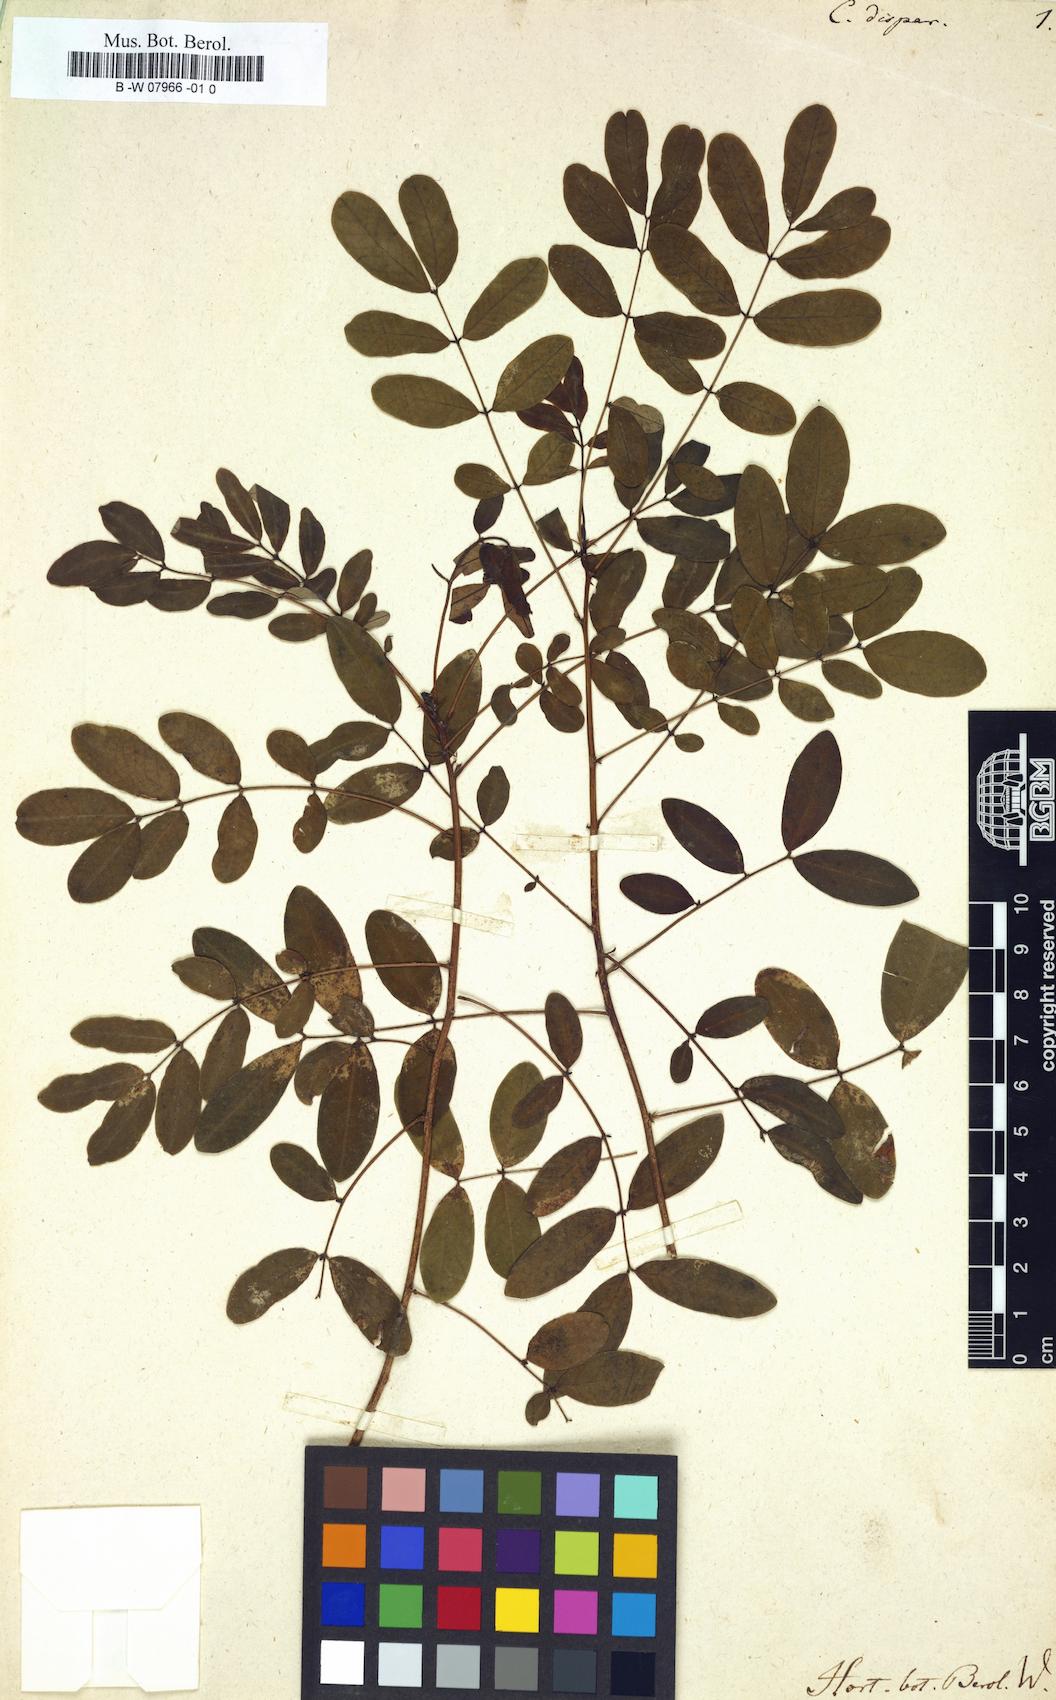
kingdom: Plantae
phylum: Tracheophyta
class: Magnoliopsida
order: Fabales
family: Fabaceae
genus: Senna
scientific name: Senna pallida
